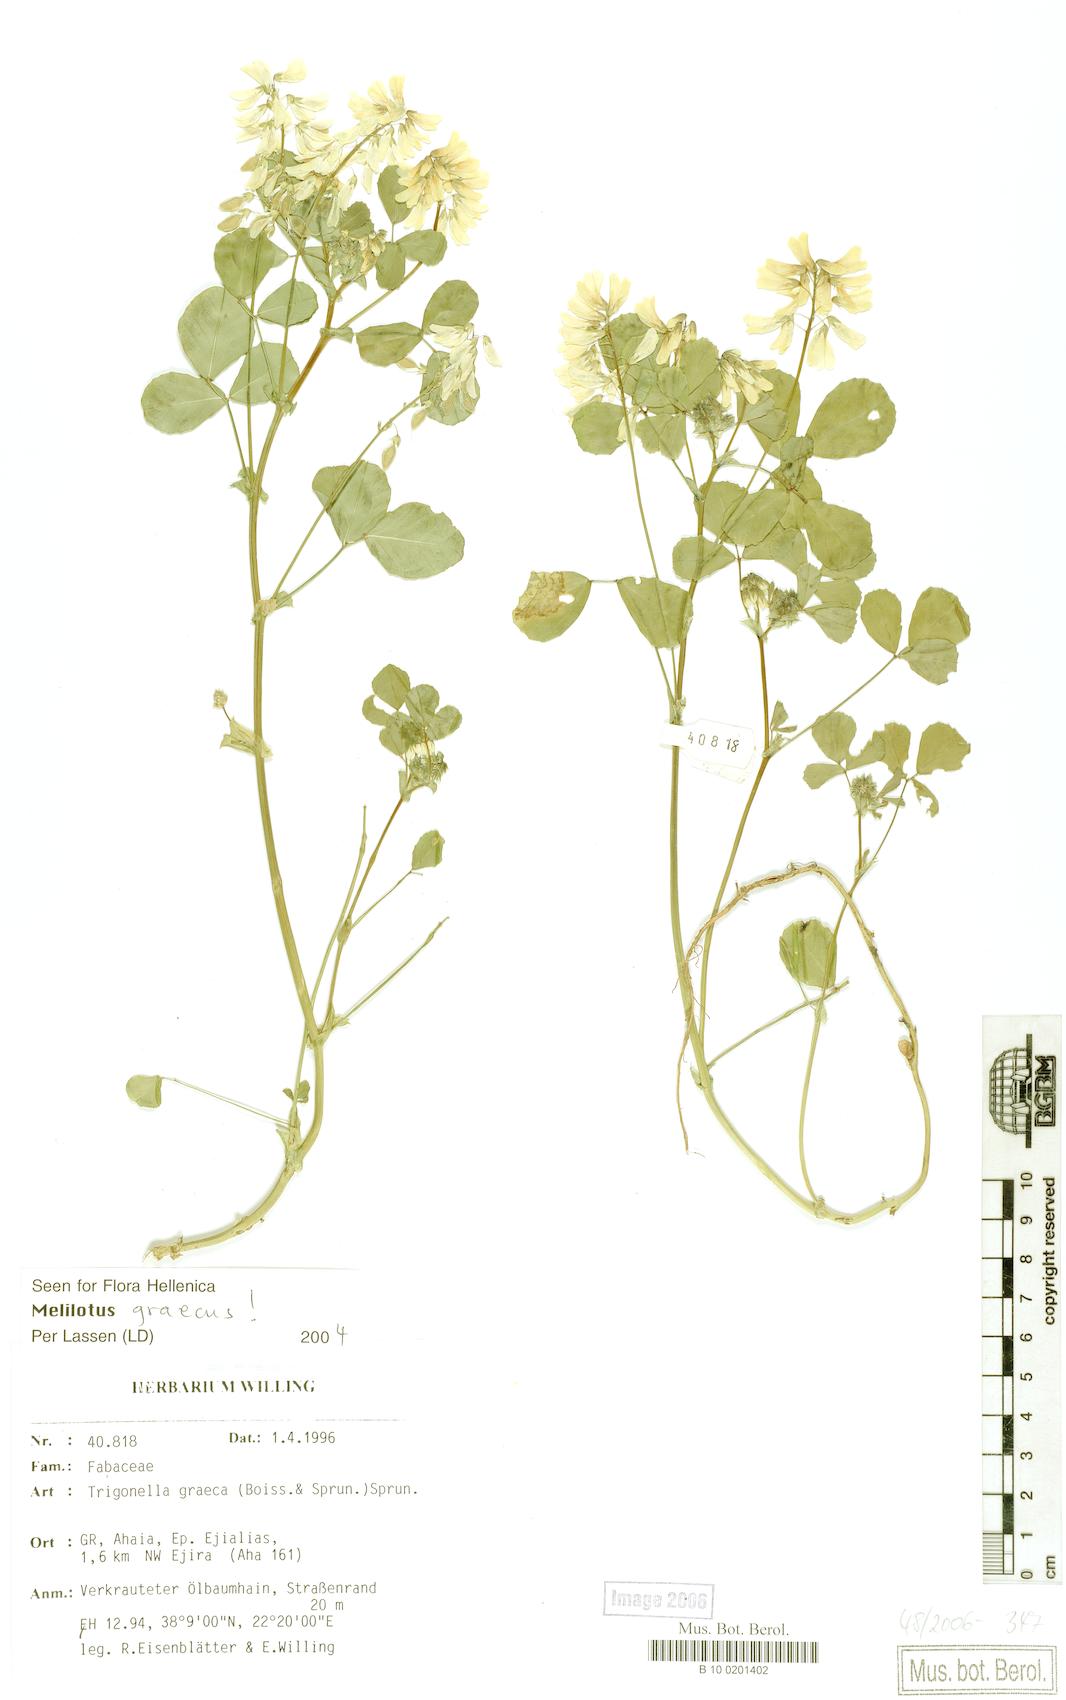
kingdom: Plantae
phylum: Tracheophyta
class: Magnoliopsida
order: Fabales
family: Fabaceae
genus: Trigonella
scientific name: Trigonella graeca
